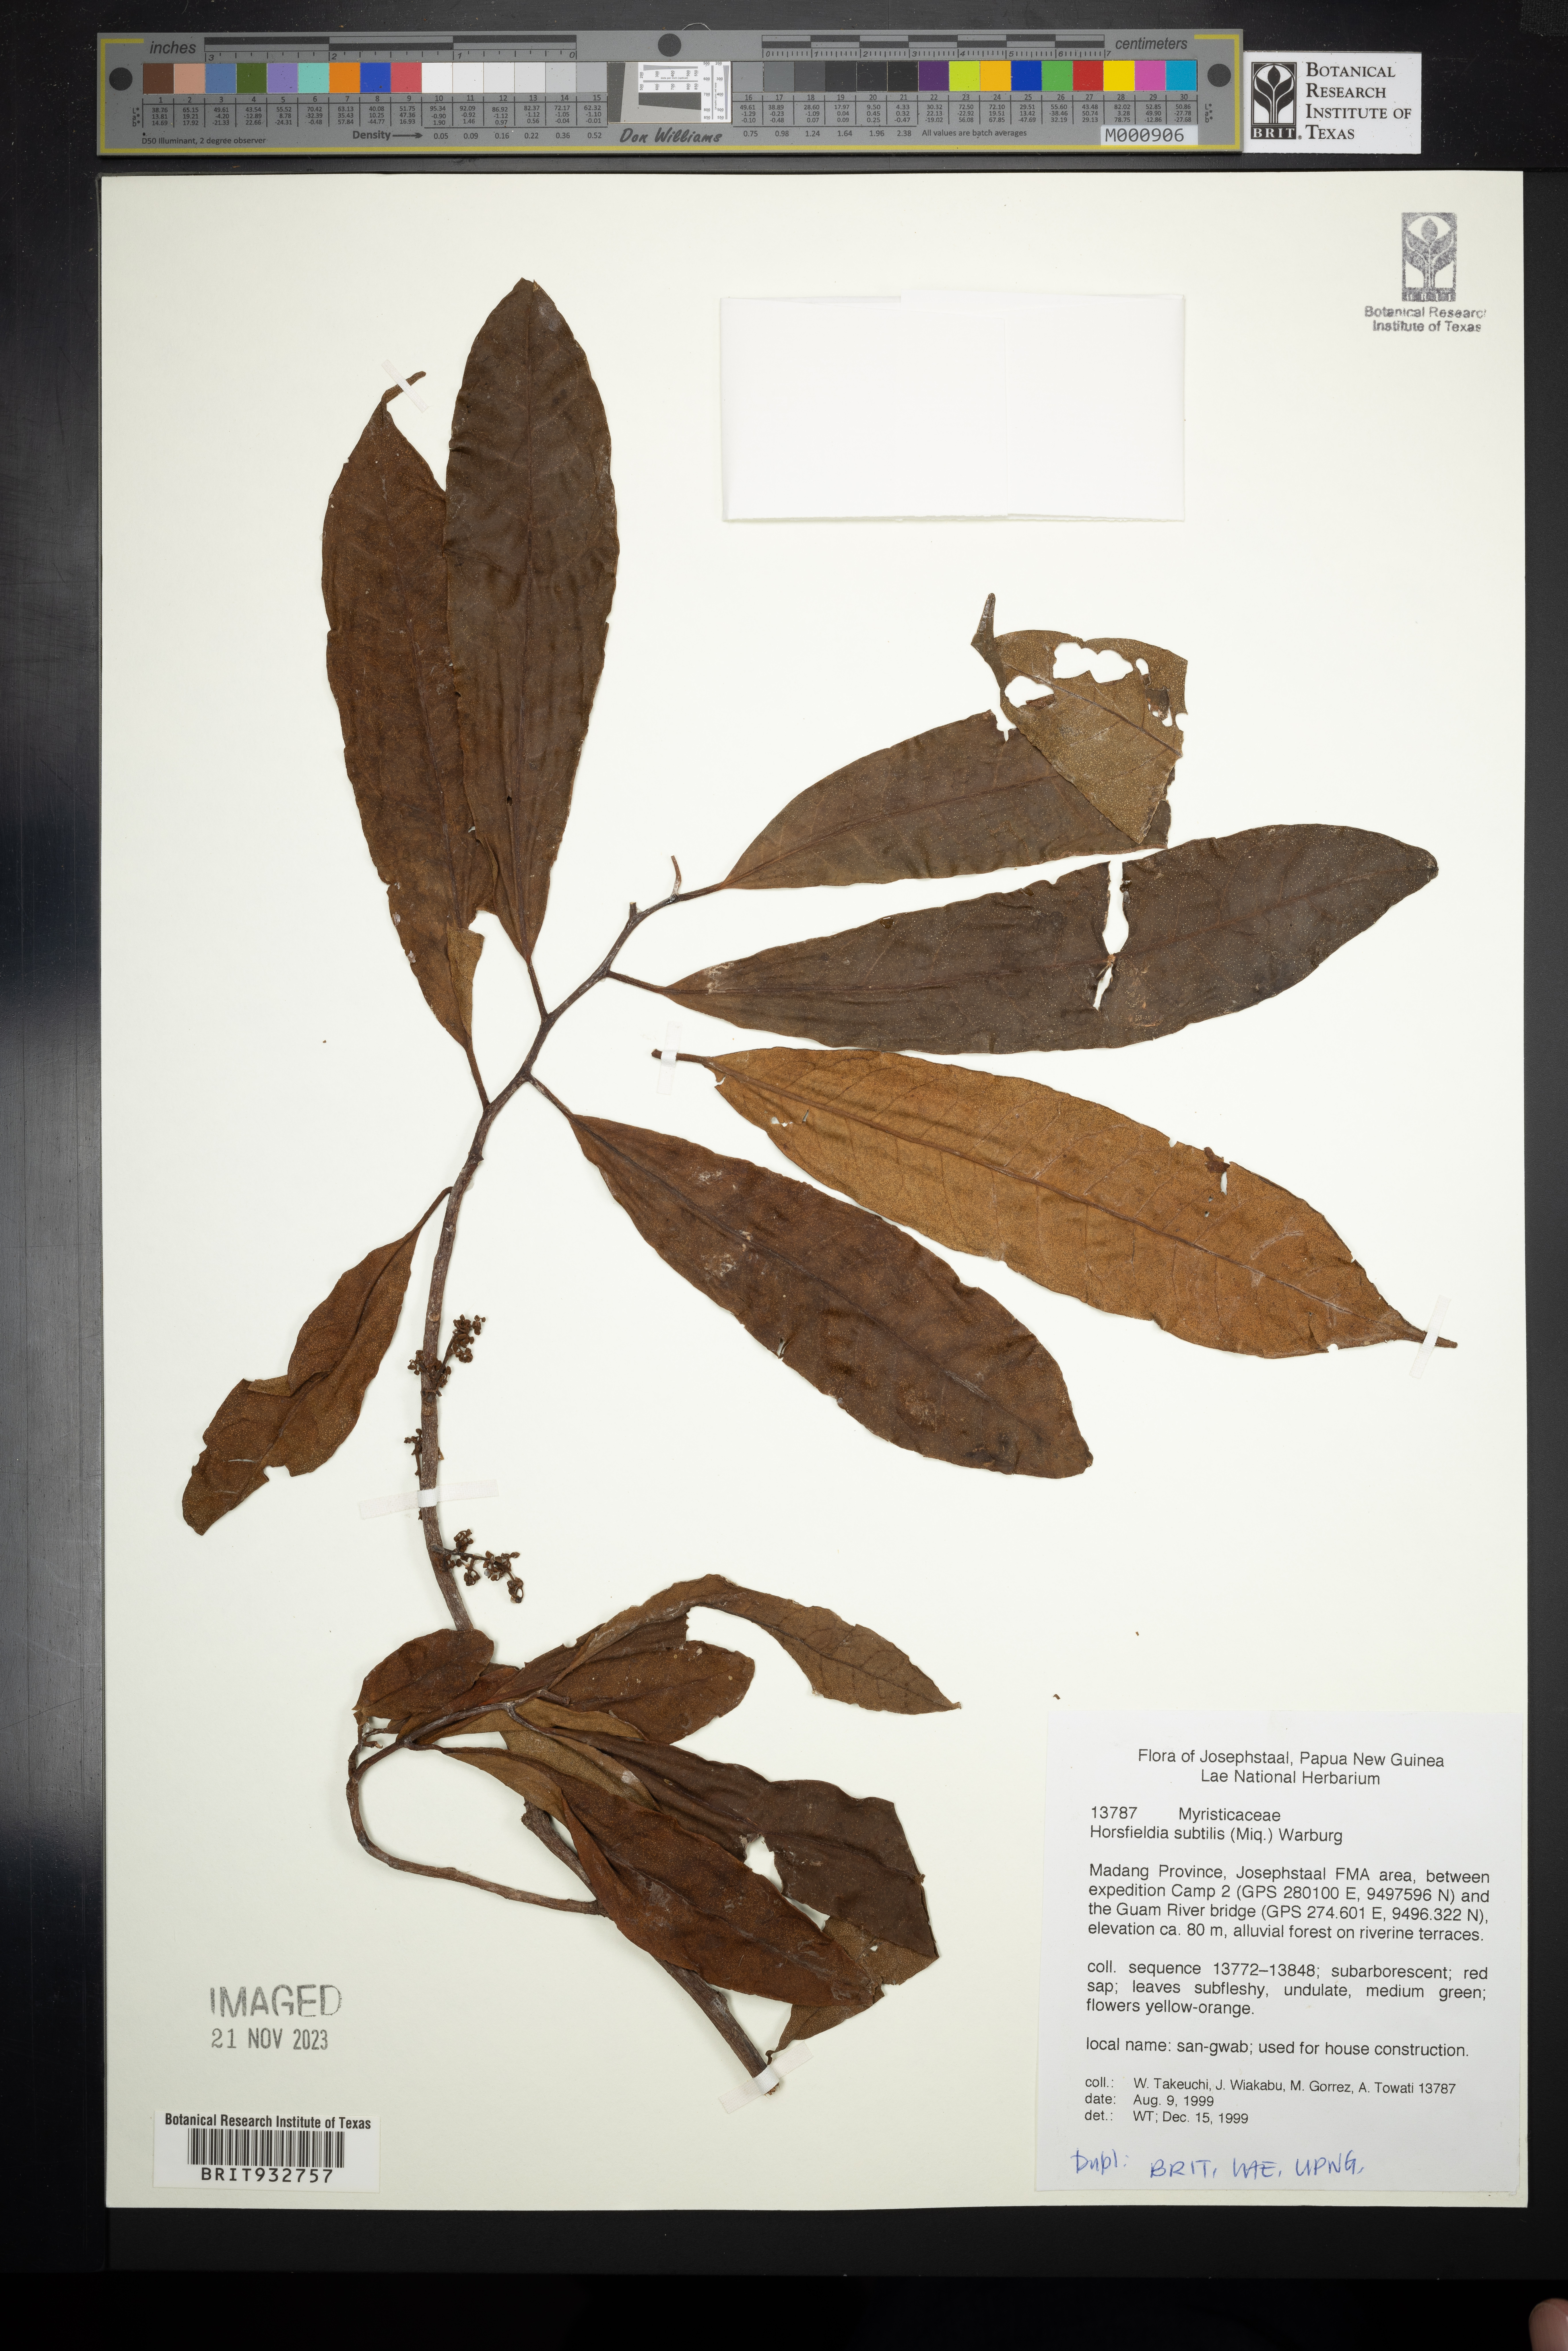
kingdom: Plantae
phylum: Tracheophyta
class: Magnoliopsida
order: Magnoliales
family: Myristicaceae
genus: Horsfieldia
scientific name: Horsfieldia
